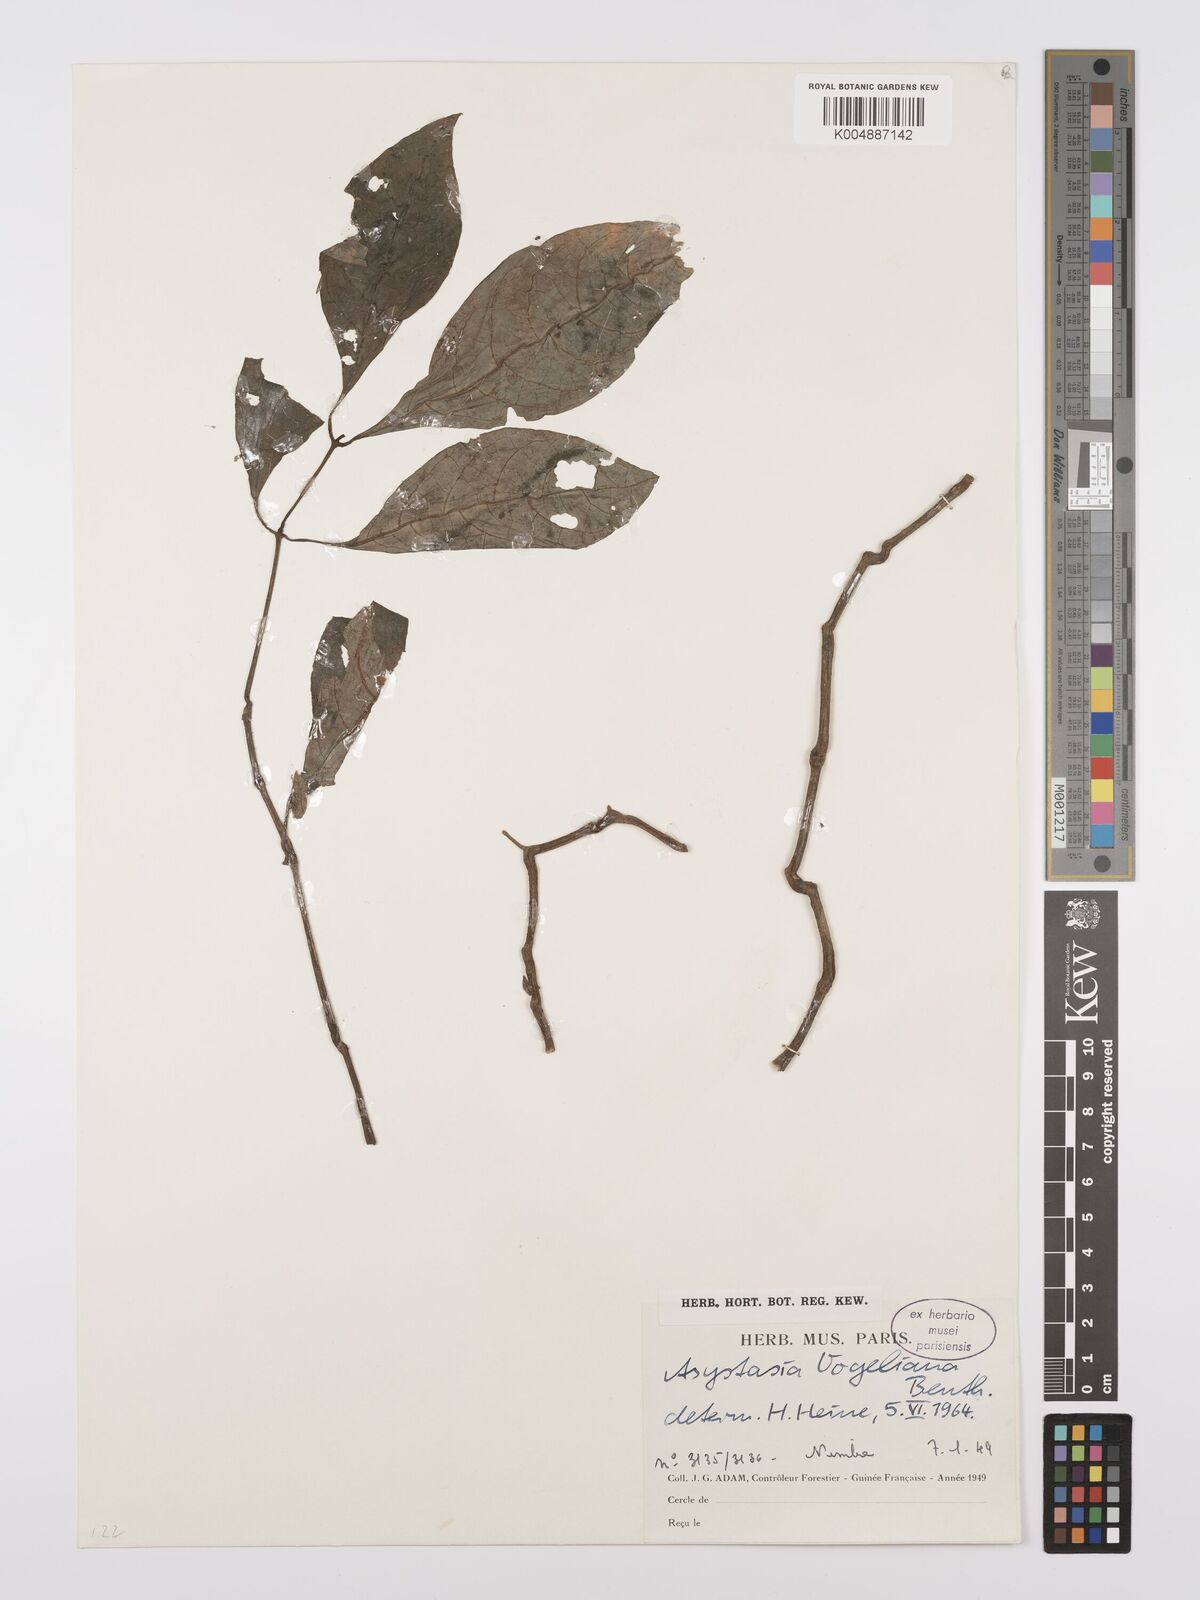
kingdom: Plantae
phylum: Tracheophyta
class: Magnoliopsida
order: Lamiales
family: Acanthaceae
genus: Asystasia
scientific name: Asystasia vogeliana
